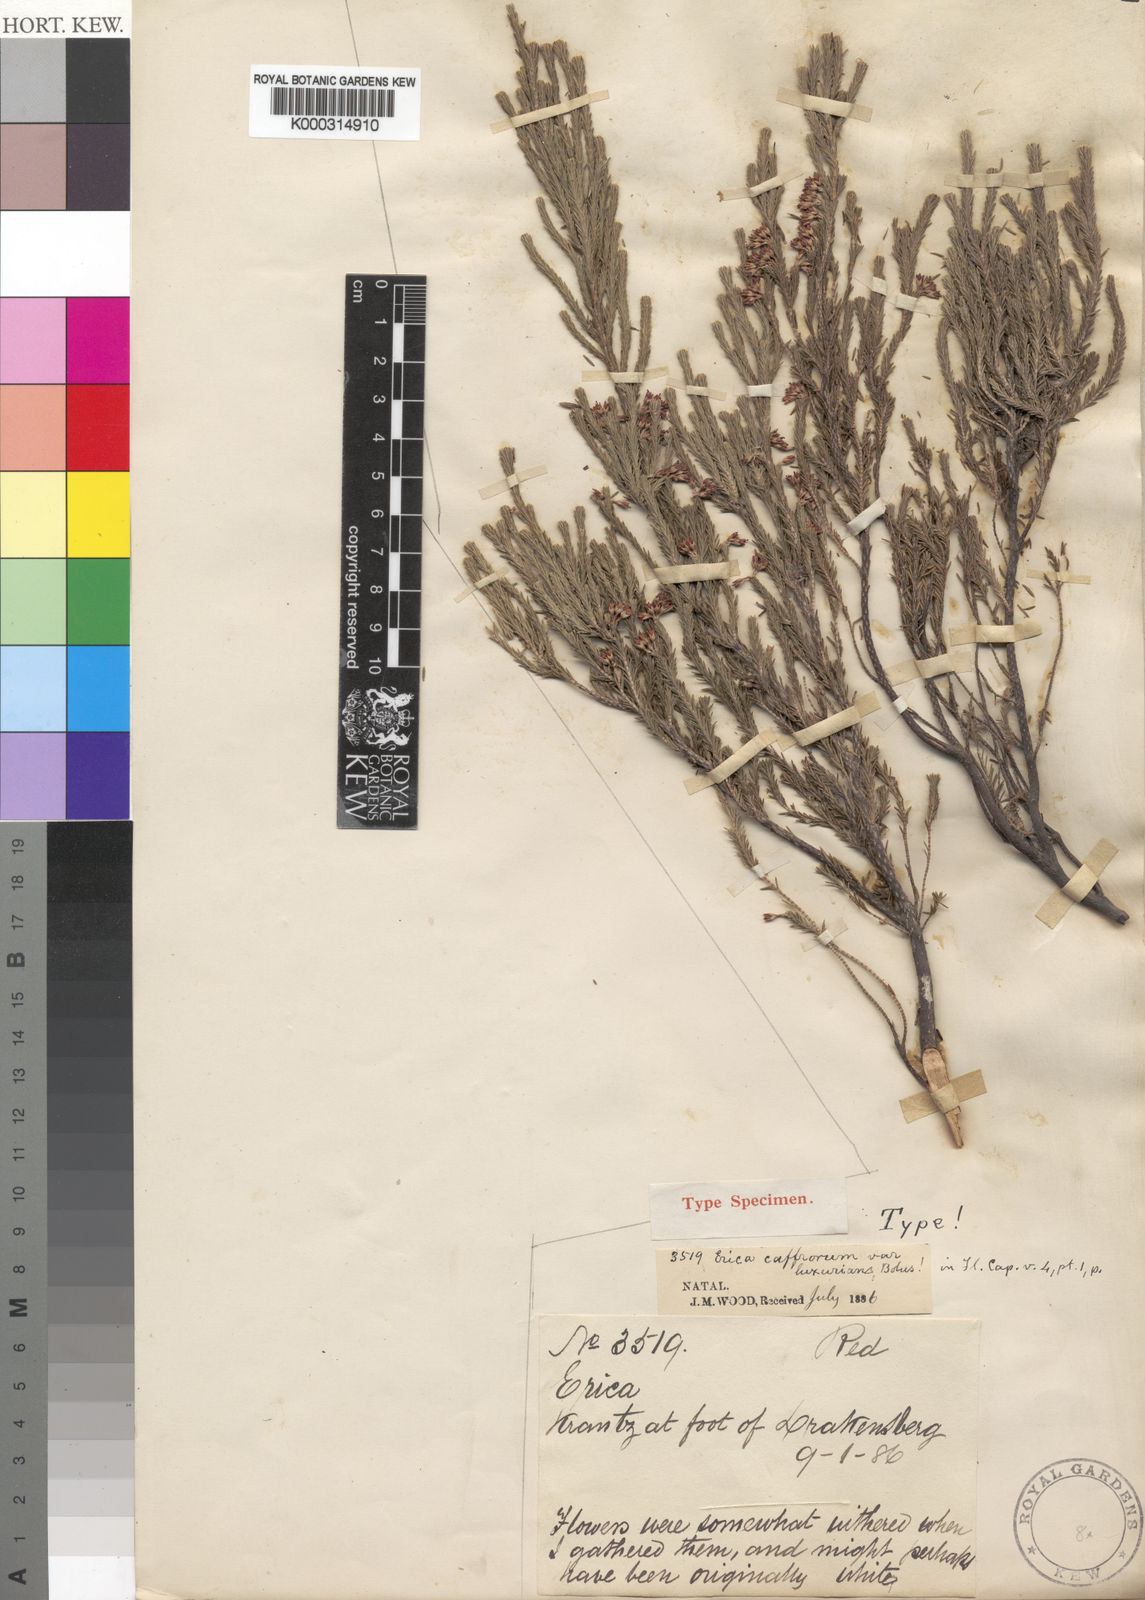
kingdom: Plantae
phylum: Tracheophyta
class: Magnoliopsida
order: Ericales
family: Ericaceae
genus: Erica
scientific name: Erica caffrorum
